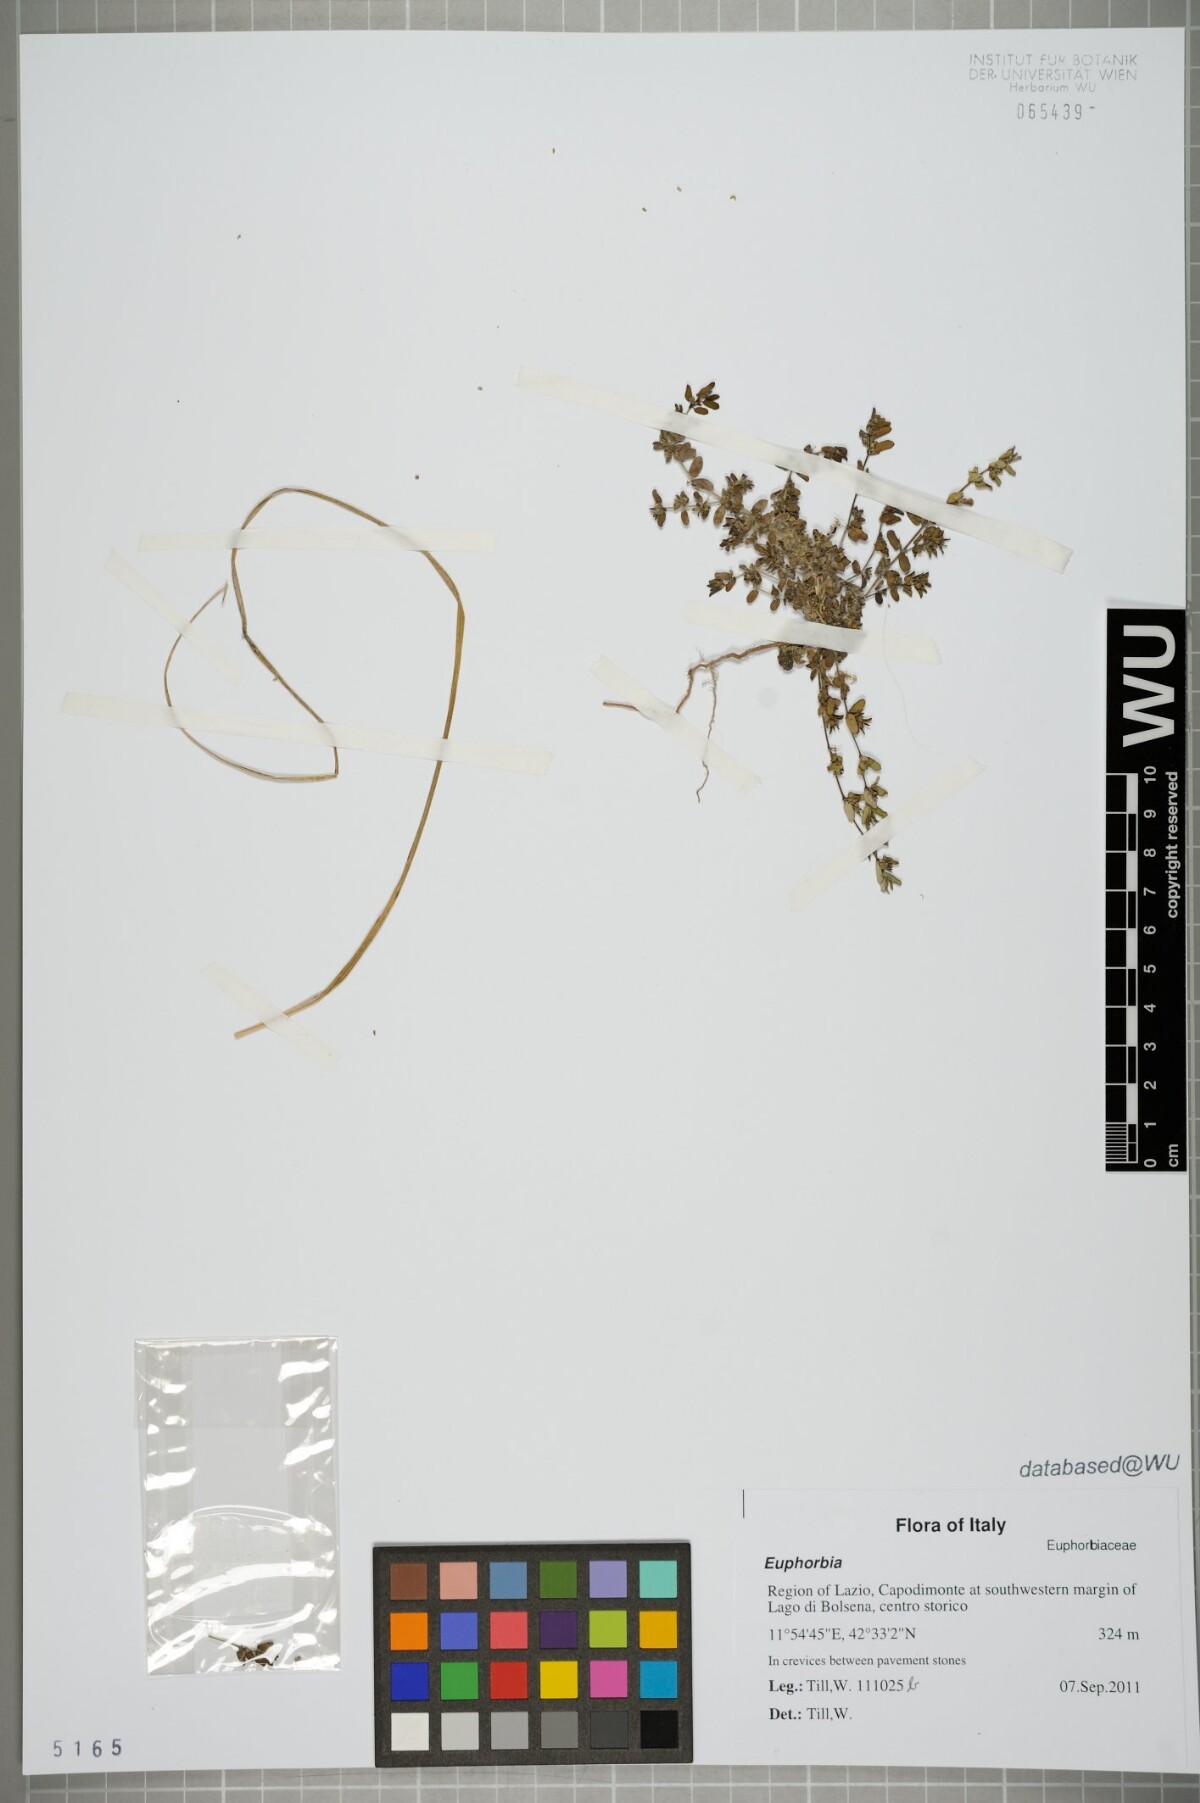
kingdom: Plantae
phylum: Tracheophyta
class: Magnoliopsida
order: Malpighiales
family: Euphorbiaceae
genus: Euphorbia
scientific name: Euphorbia
